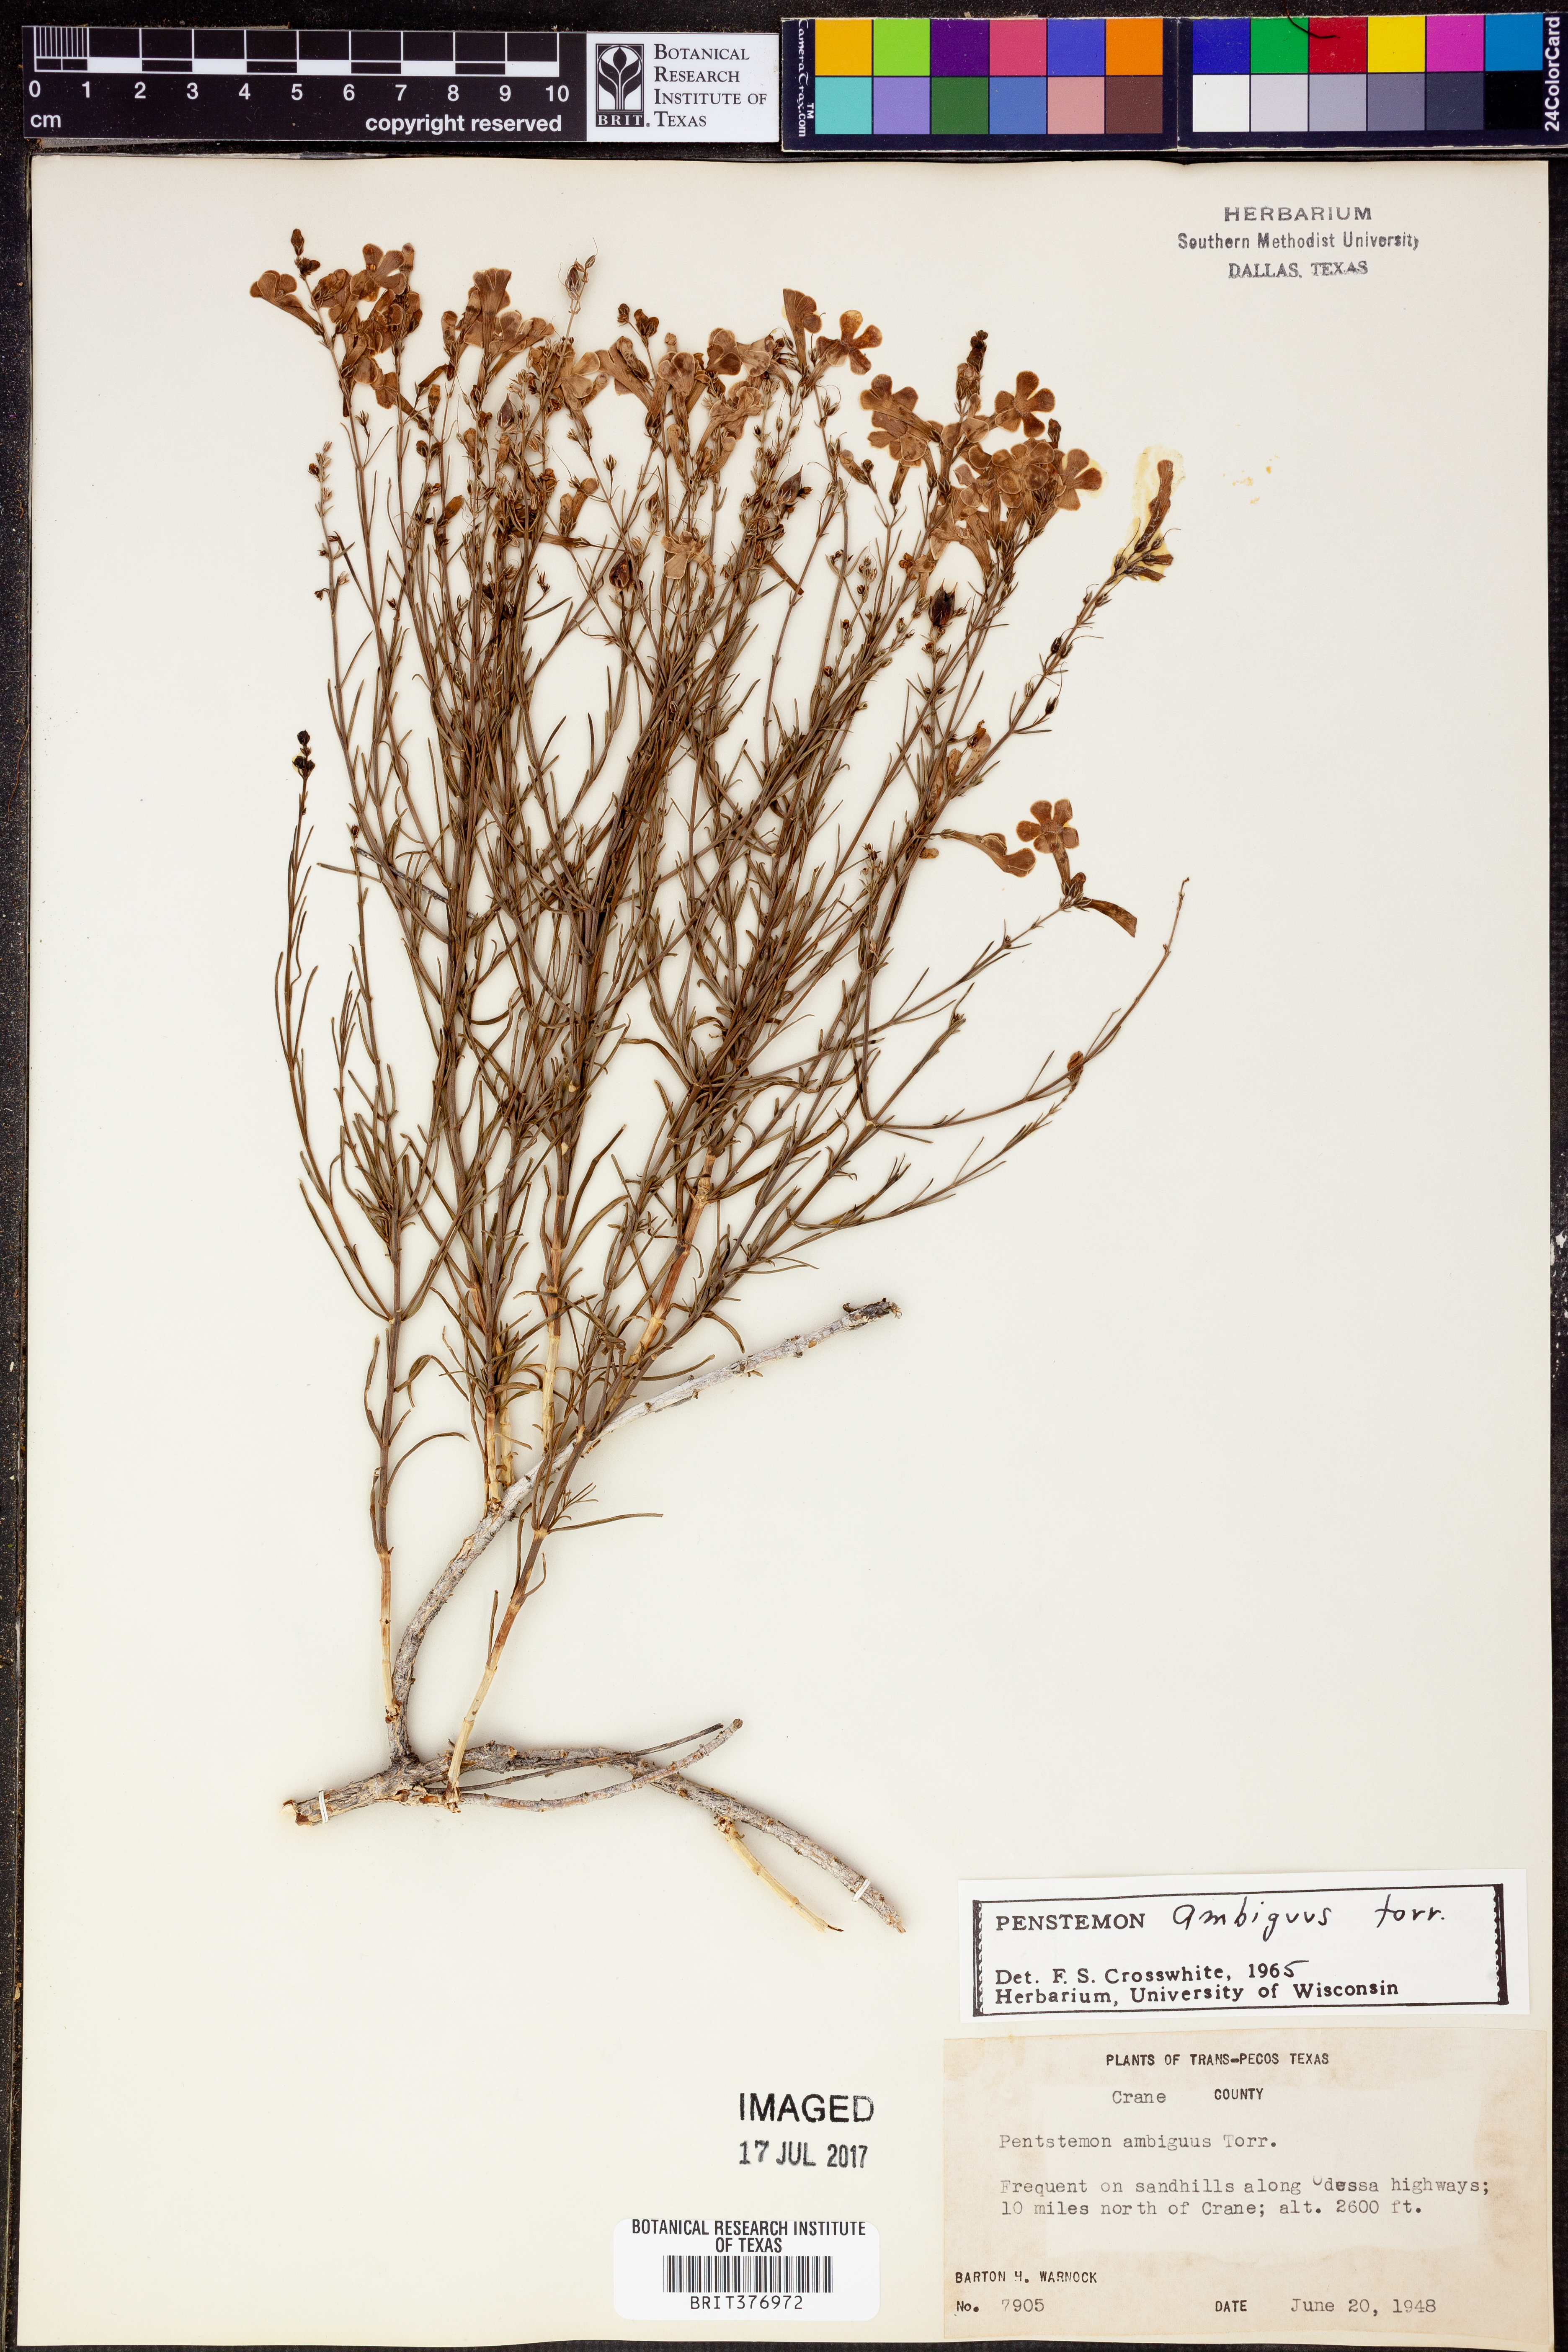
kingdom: Plantae
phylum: Tracheophyta
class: Magnoliopsida
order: Lamiales
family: Plantaginaceae
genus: Penstemon
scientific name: Penstemon ambiguus
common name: Bush penstemon
